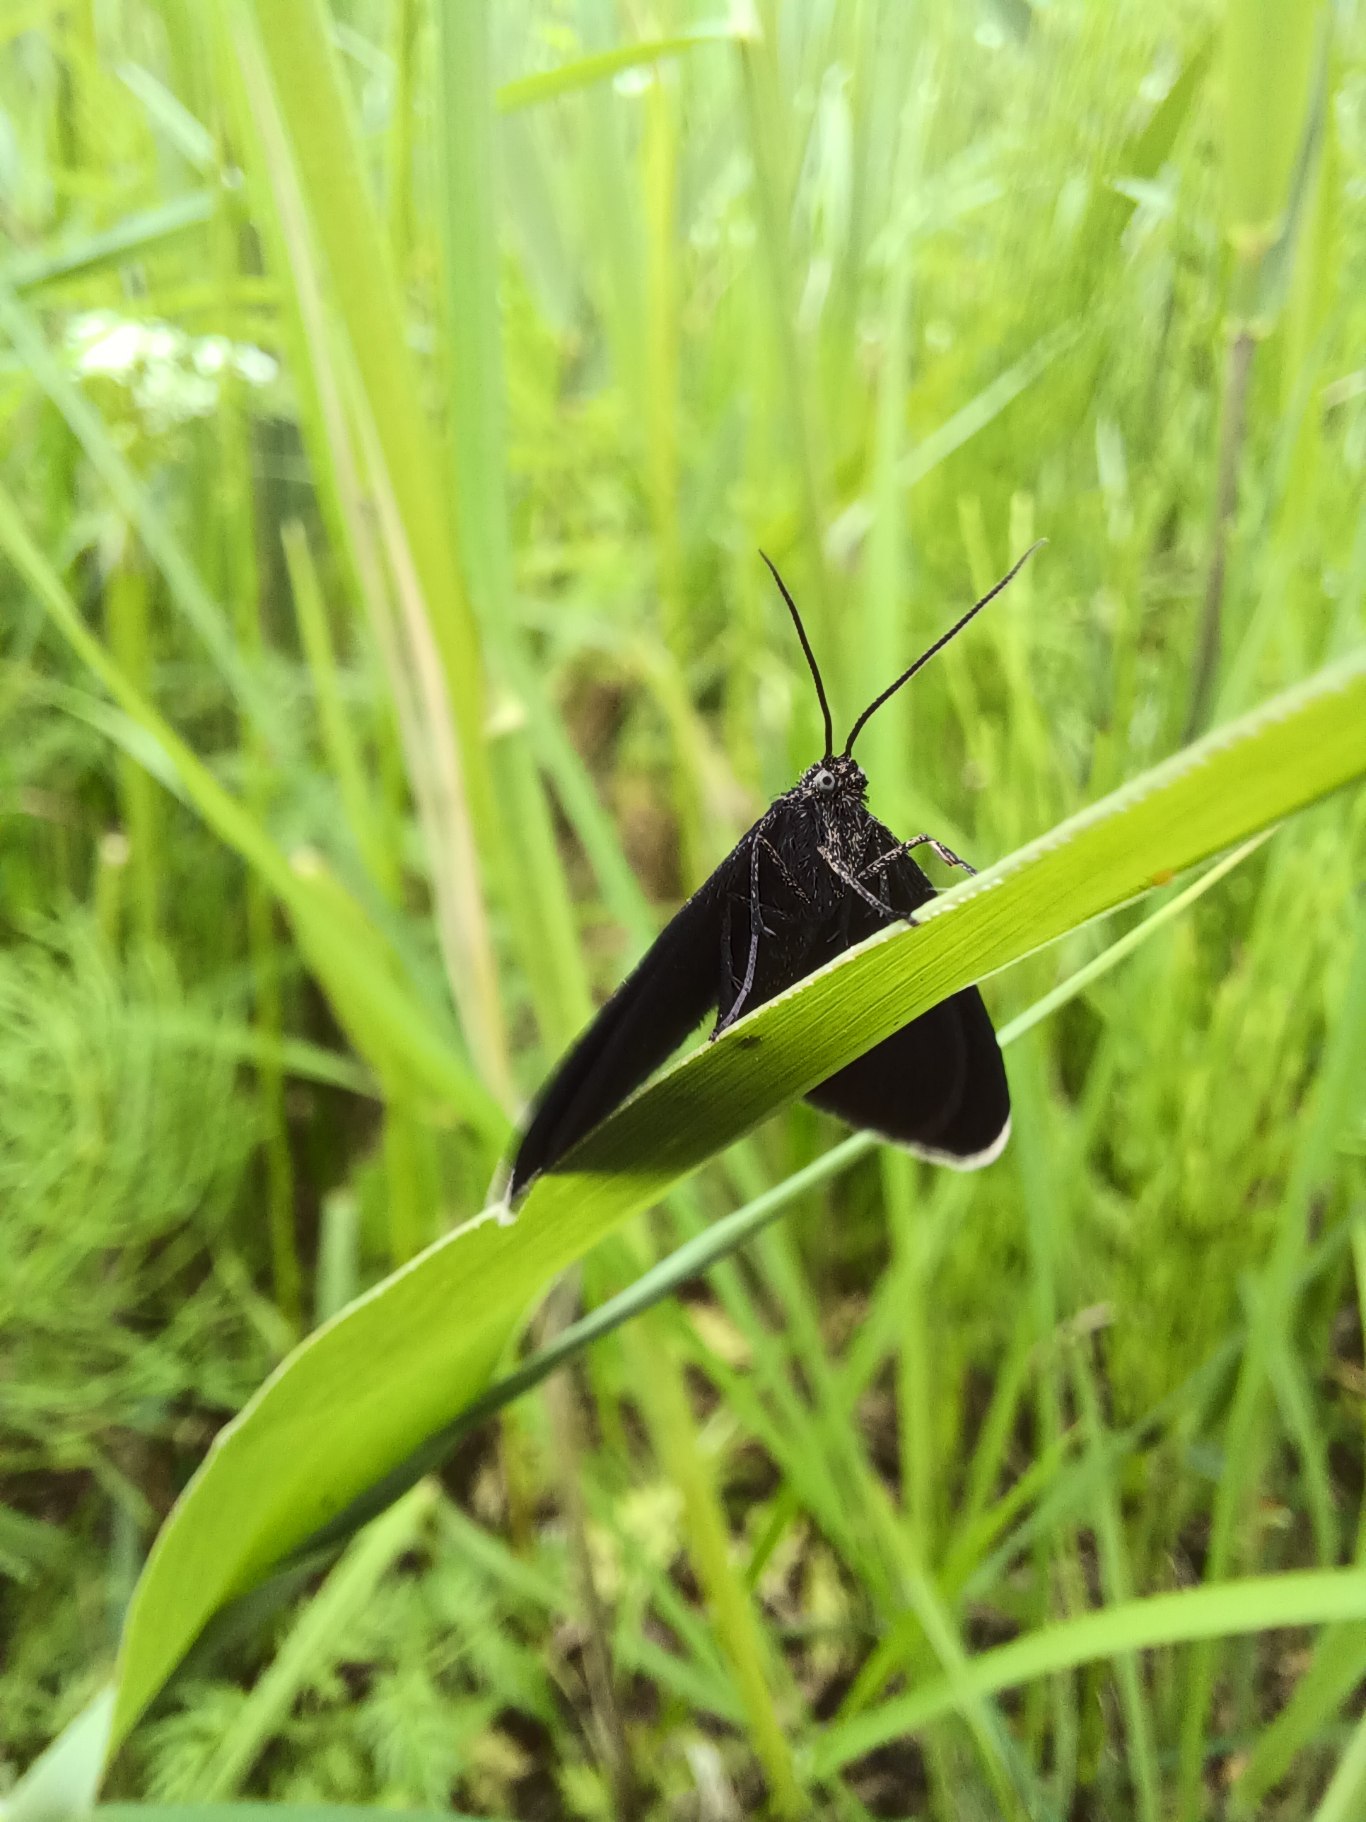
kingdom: Animalia
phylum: Arthropoda
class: Insecta
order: Lepidoptera
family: Geometridae
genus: Odezia
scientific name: Odezia atrata
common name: Sort måler
